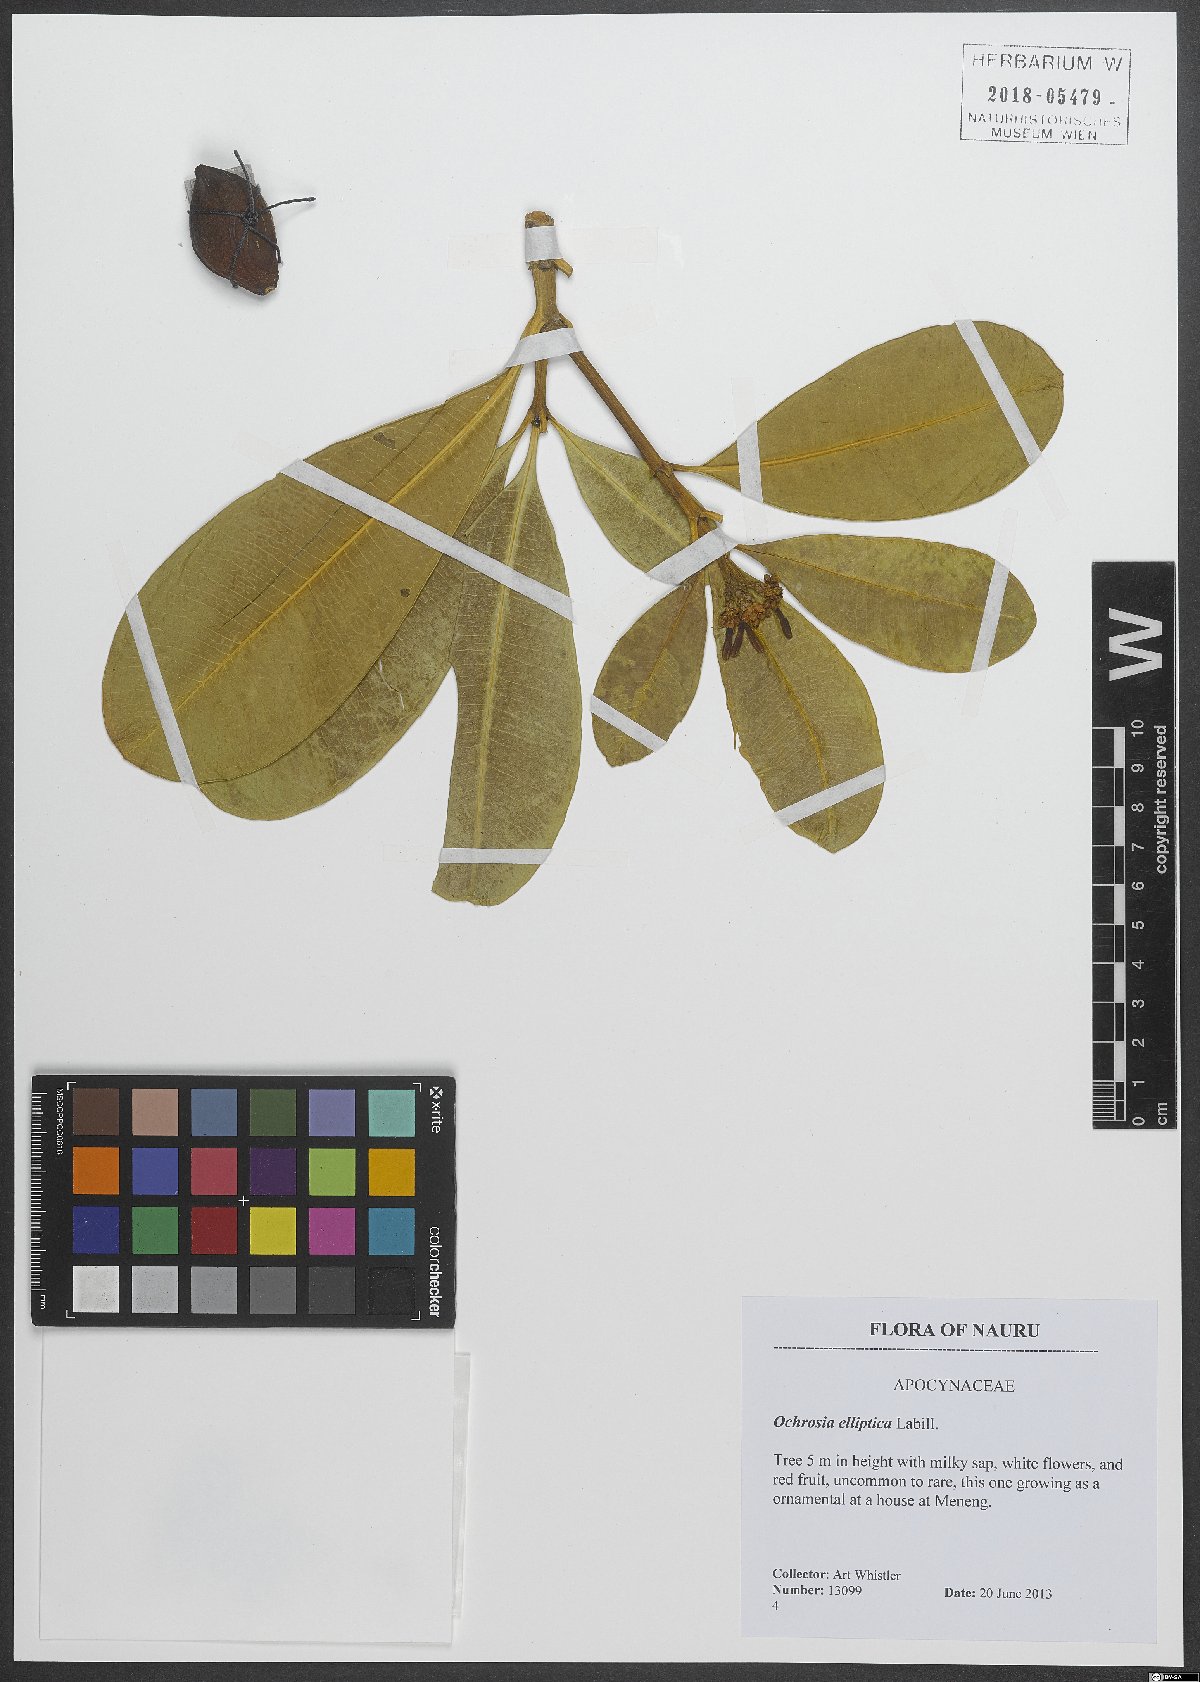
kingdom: Plantae
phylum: Tracheophyta
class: Magnoliopsida
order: Gentianales
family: Apocynaceae
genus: Ochrosia
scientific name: Ochrosia elliptica
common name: Elliptic yellowwood
